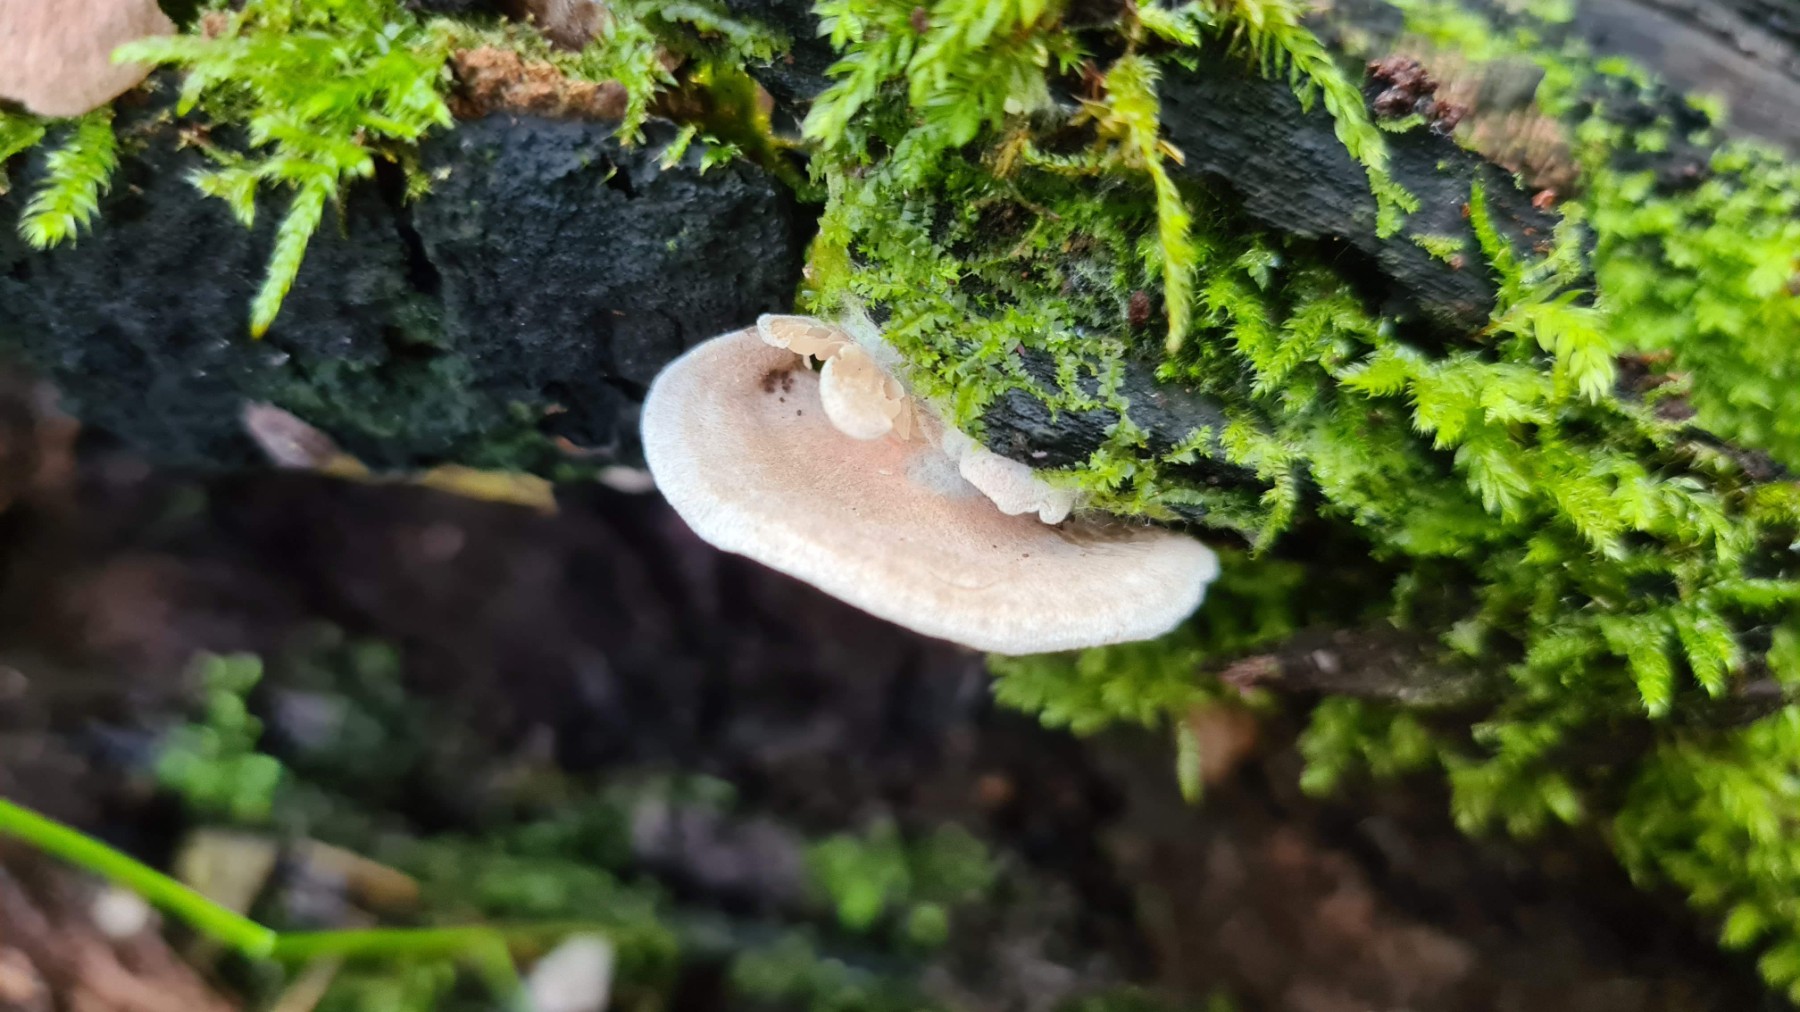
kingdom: Fungi
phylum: Basidiomycota
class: Agaricomycetes
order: Agaricales
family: Entolomataceae
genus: Entoloma
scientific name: Entoloma byssisedum
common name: vifte-rødblad
